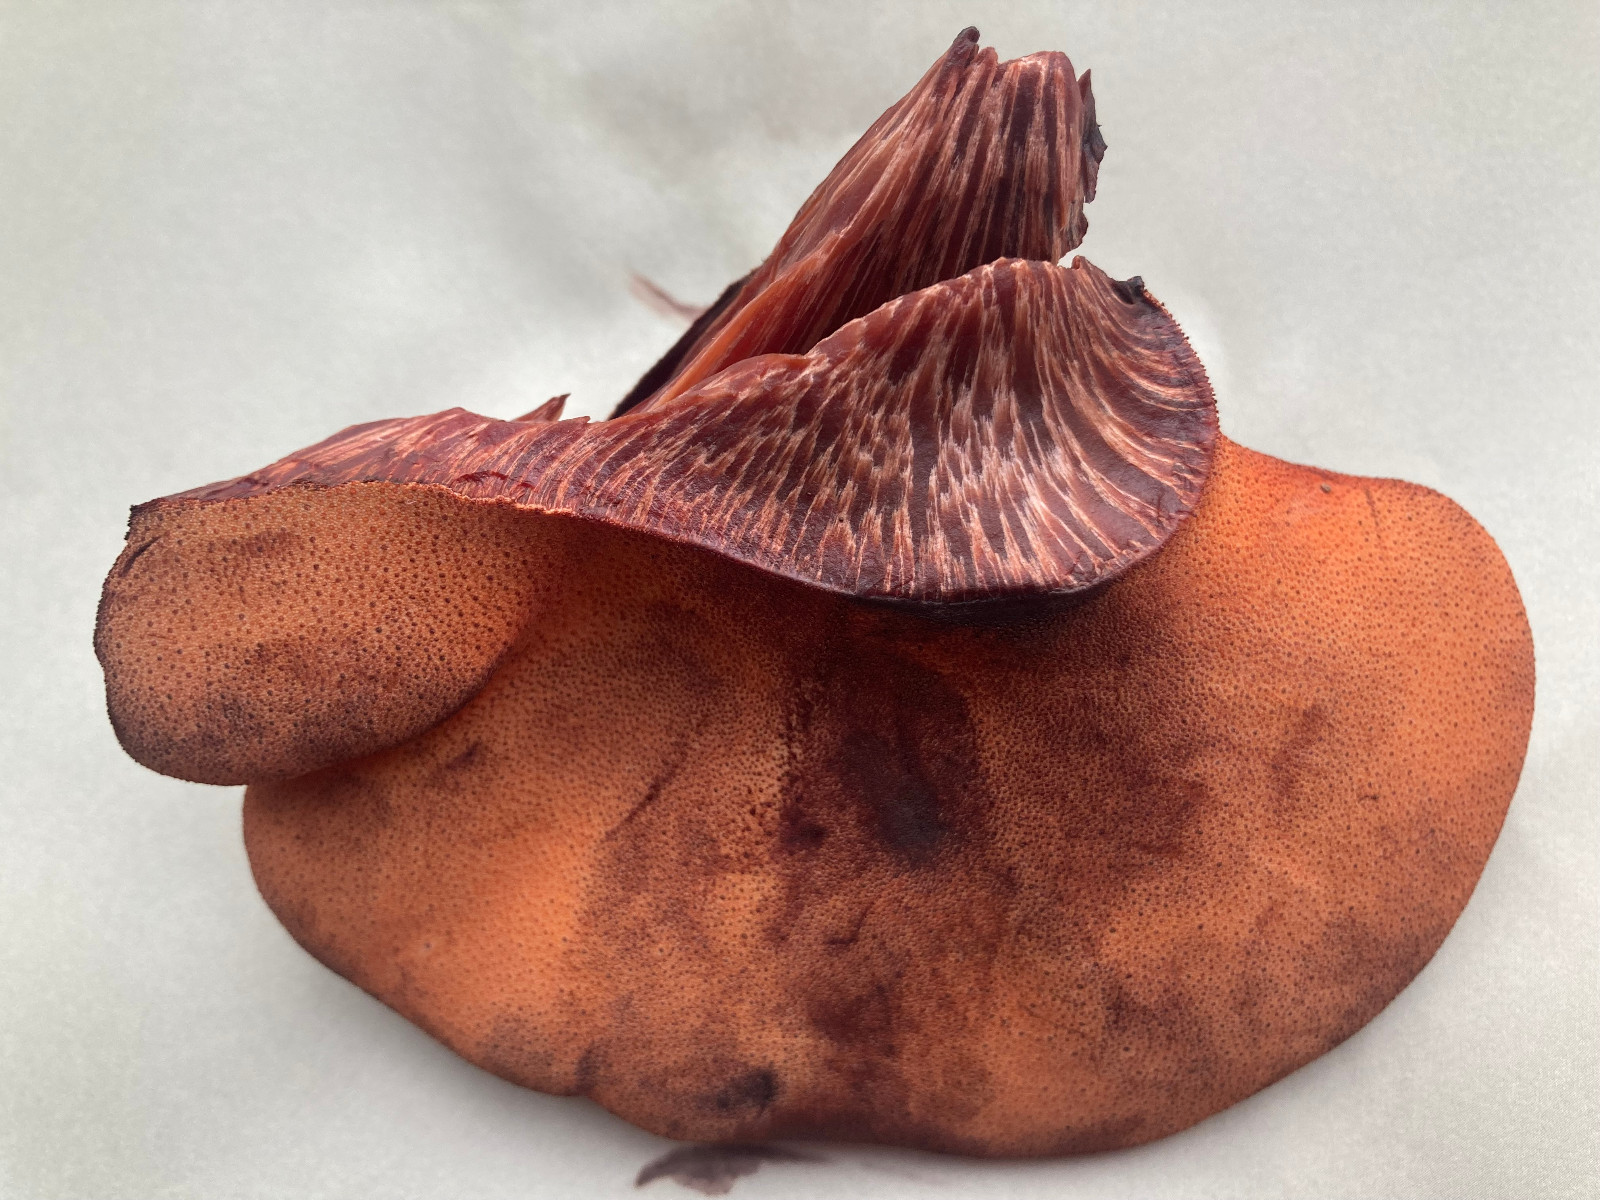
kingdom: Fungi
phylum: Basidiomycota
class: Agaricomycetes
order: Agaricales
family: Fistulinaceae
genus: Fistulina
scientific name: Fistulina hepatica
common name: oksetunge
